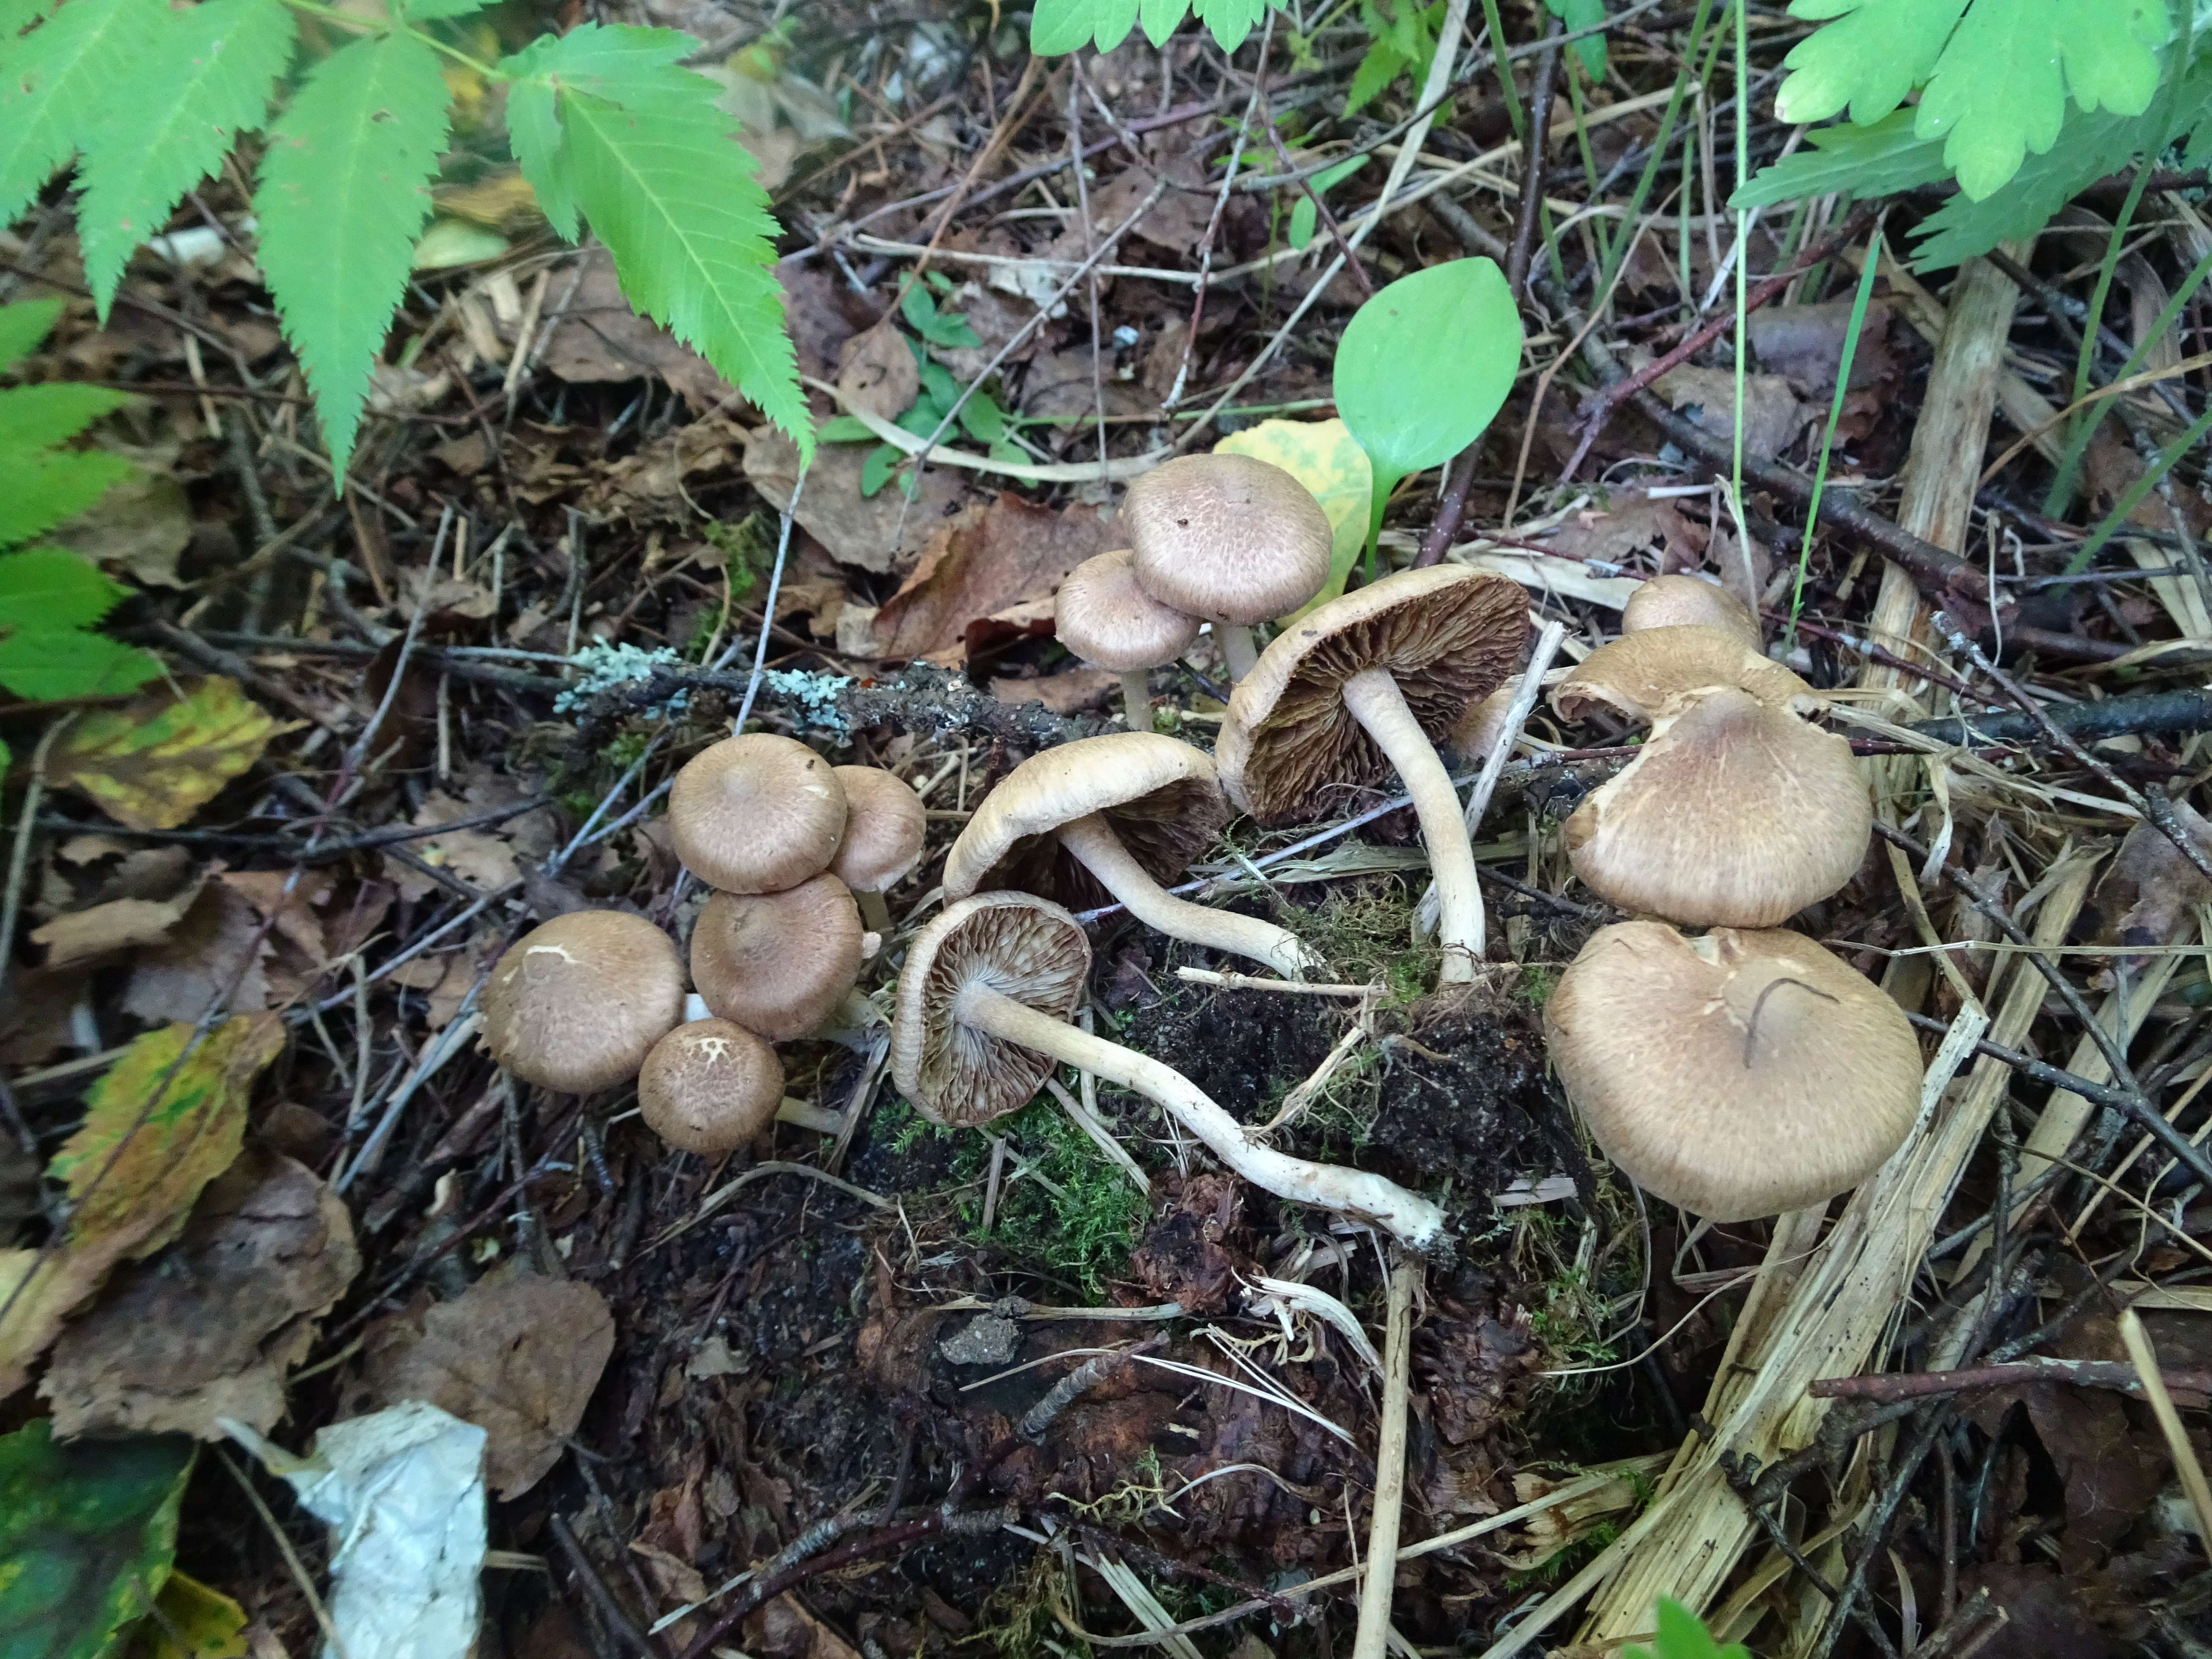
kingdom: Fungi
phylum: Basidiomycota
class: Agaricomycetes
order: Agaricales
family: Inocybaceae
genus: Inocybe
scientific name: Inocybe
